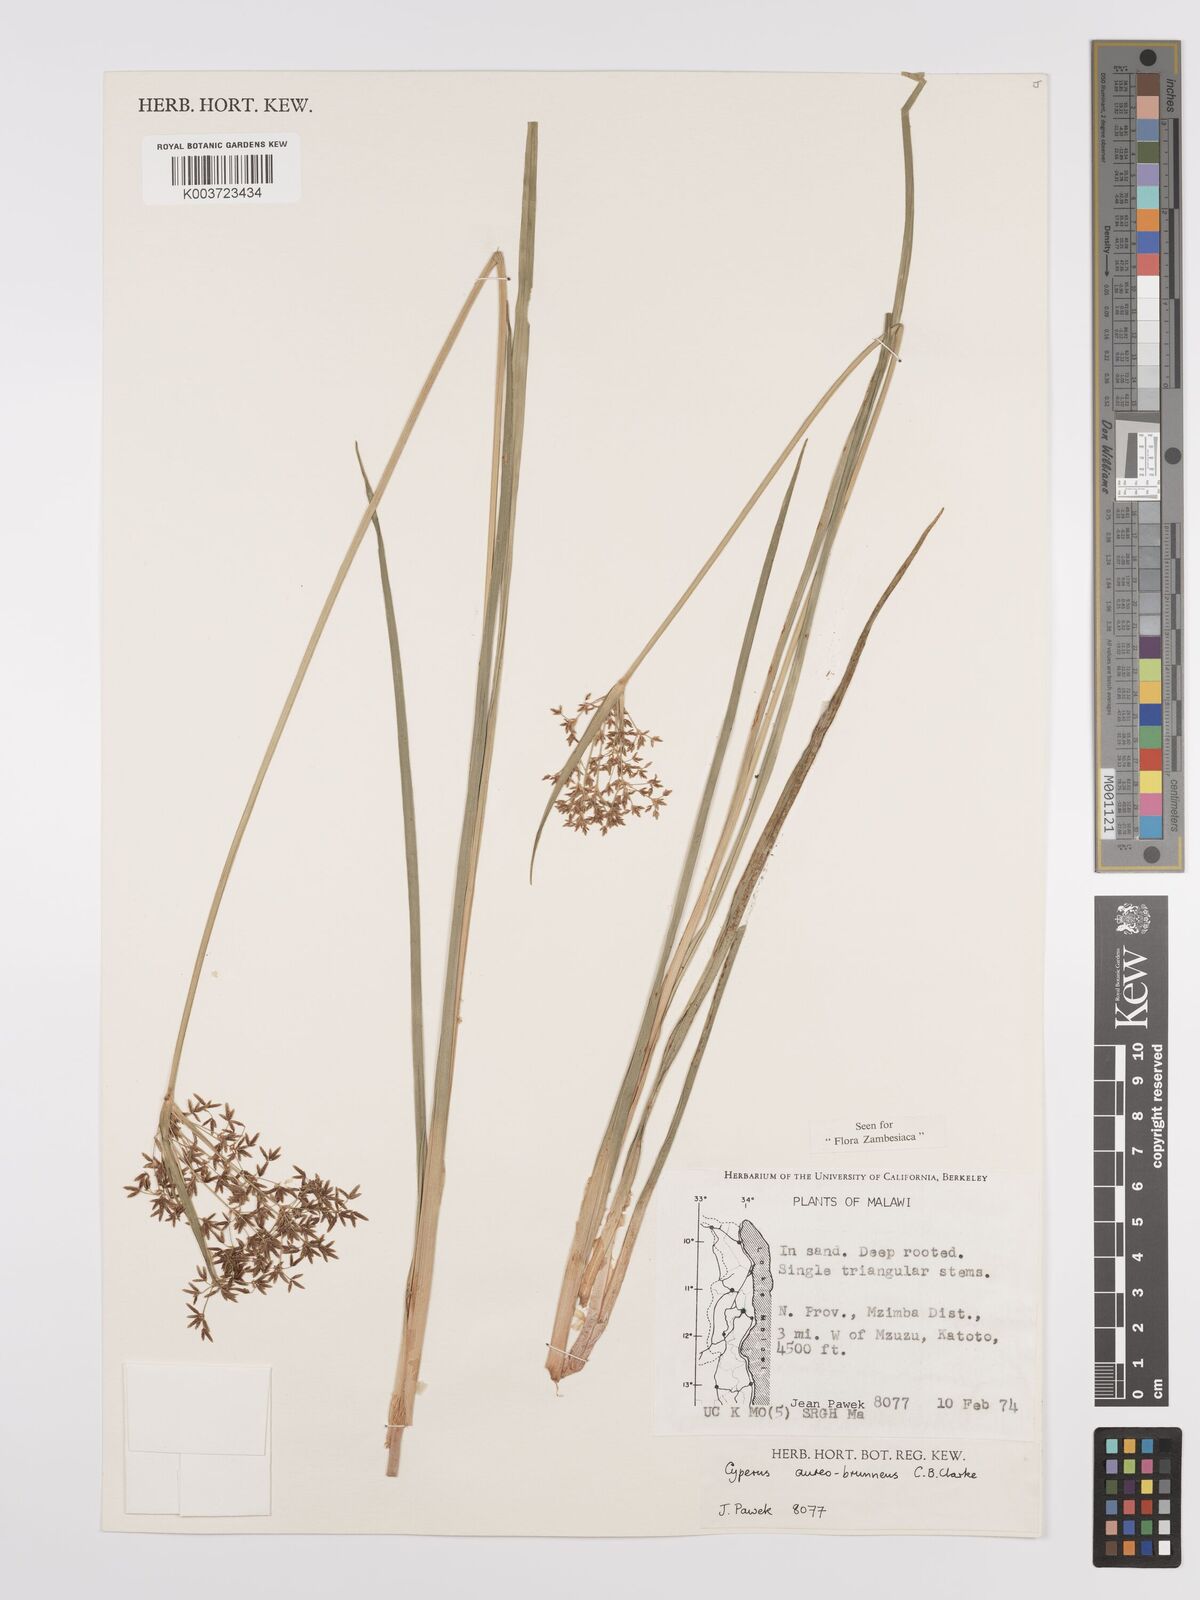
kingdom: Plantae
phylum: Tracheophyta
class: Liliopsida
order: Poales
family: Cyperaceae
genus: Cyperus
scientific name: Cyperus aureobrunneus
